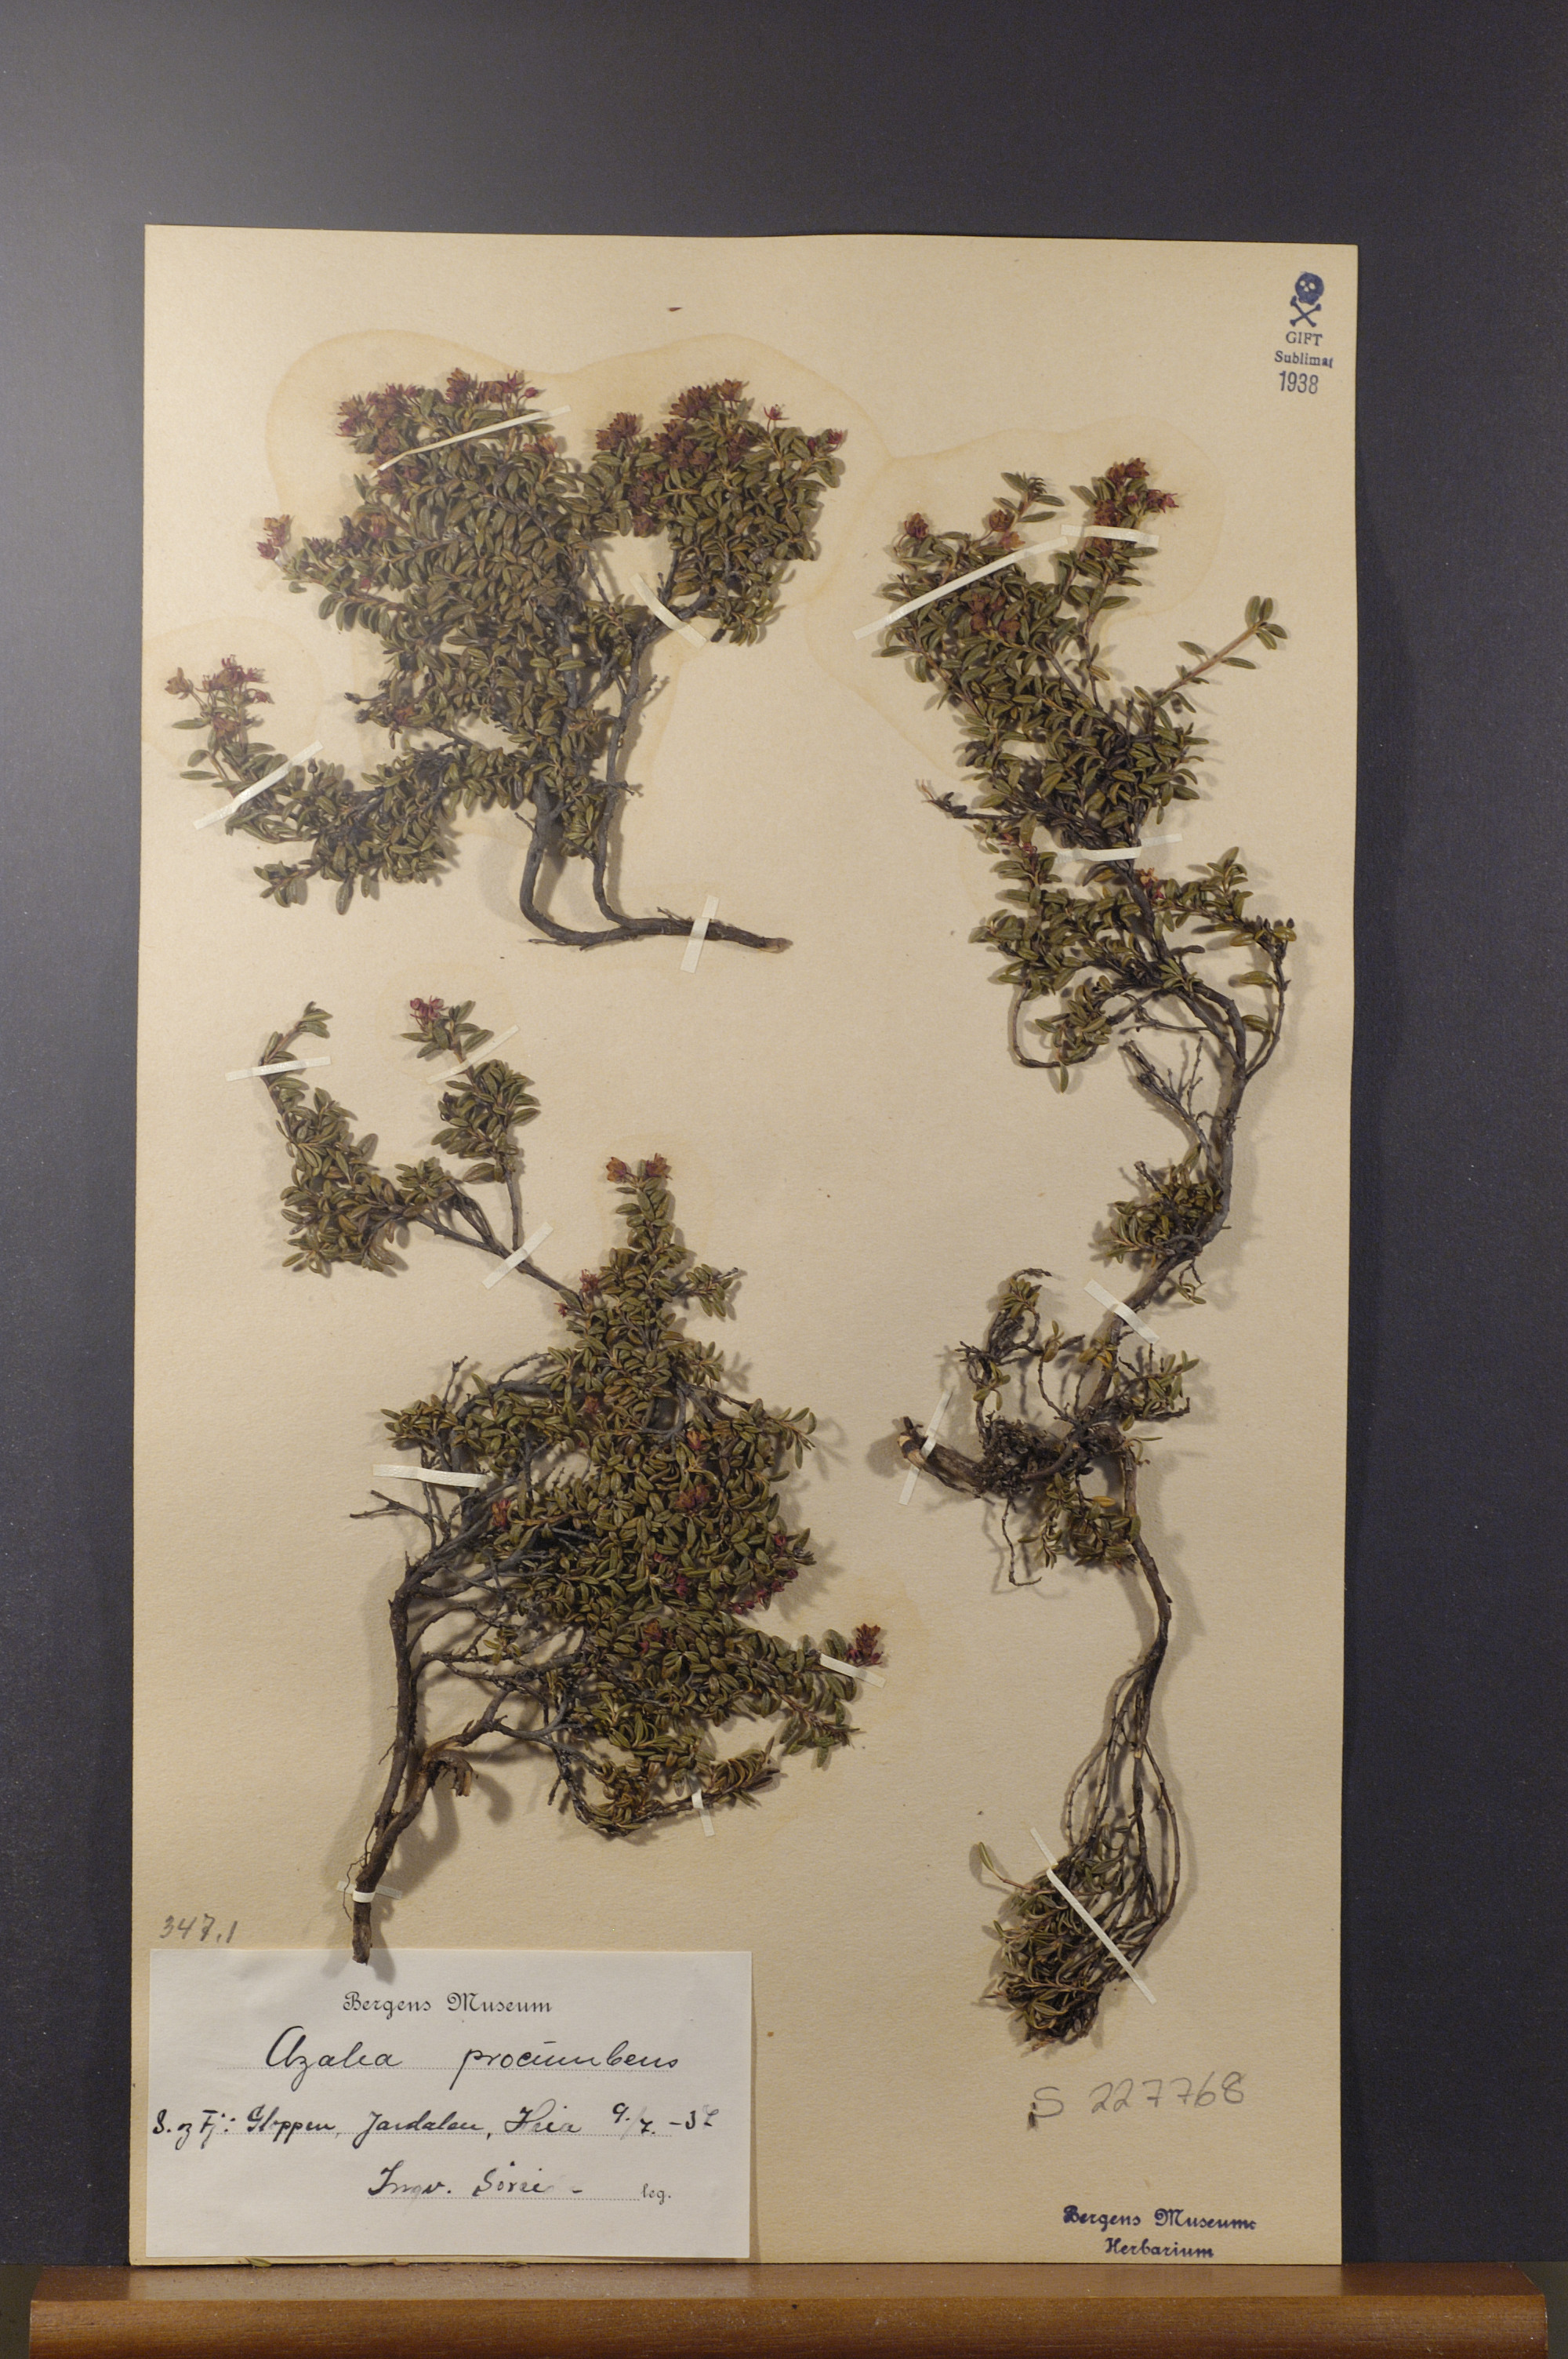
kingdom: Plantae
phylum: Tracheophyta
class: Magnoliopsida
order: Ericales
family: Ericaceae
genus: Kalmia
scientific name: Kalmia procumbens
